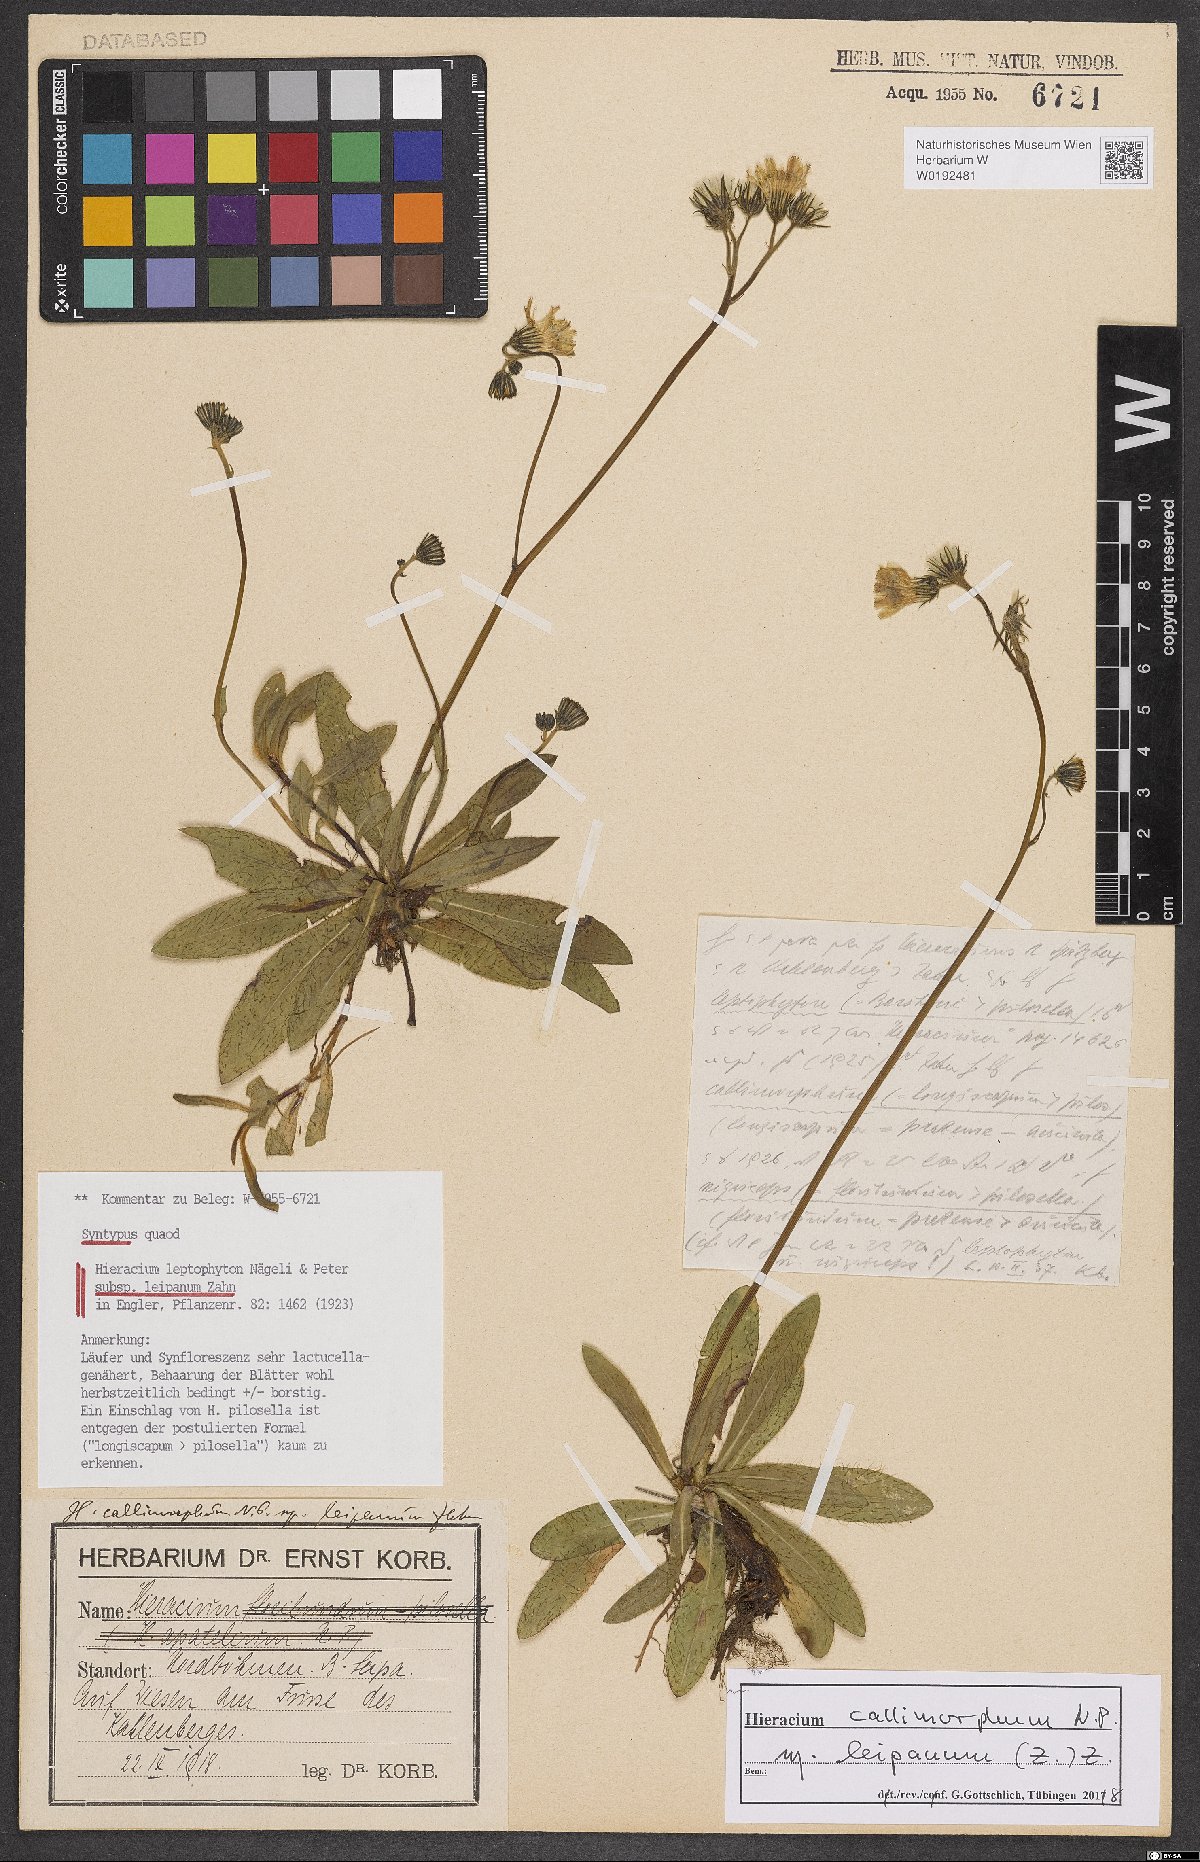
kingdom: Plantae
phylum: Tracheophyta
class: Magnoliopsida
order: Asterales
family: Asteraceae
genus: Pilosella
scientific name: Pilosella leptophyton
